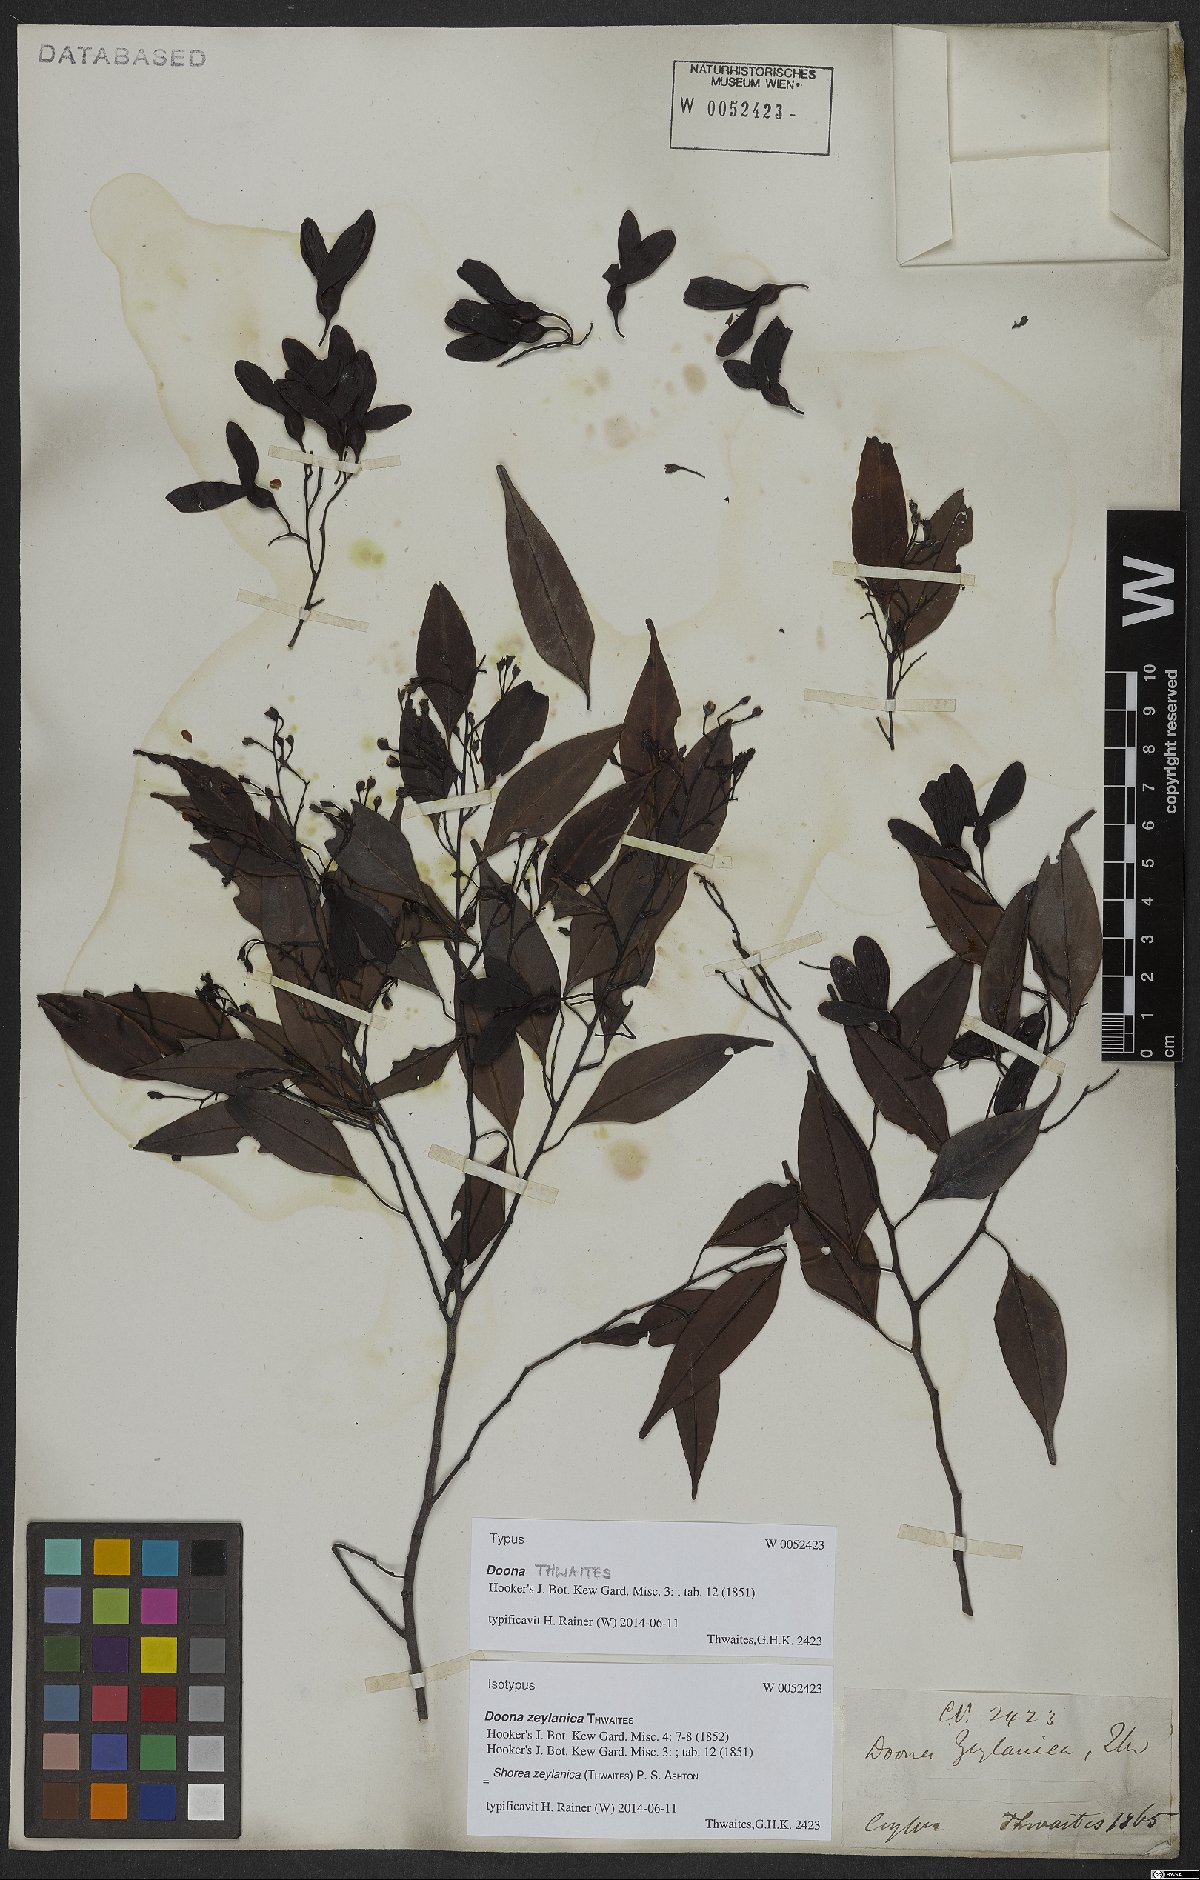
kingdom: Plantae
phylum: Tracheophyta
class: Magnoliopsida
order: Malvales
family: Dipterocarpaceae
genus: Doona
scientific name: Doona zeylanica
